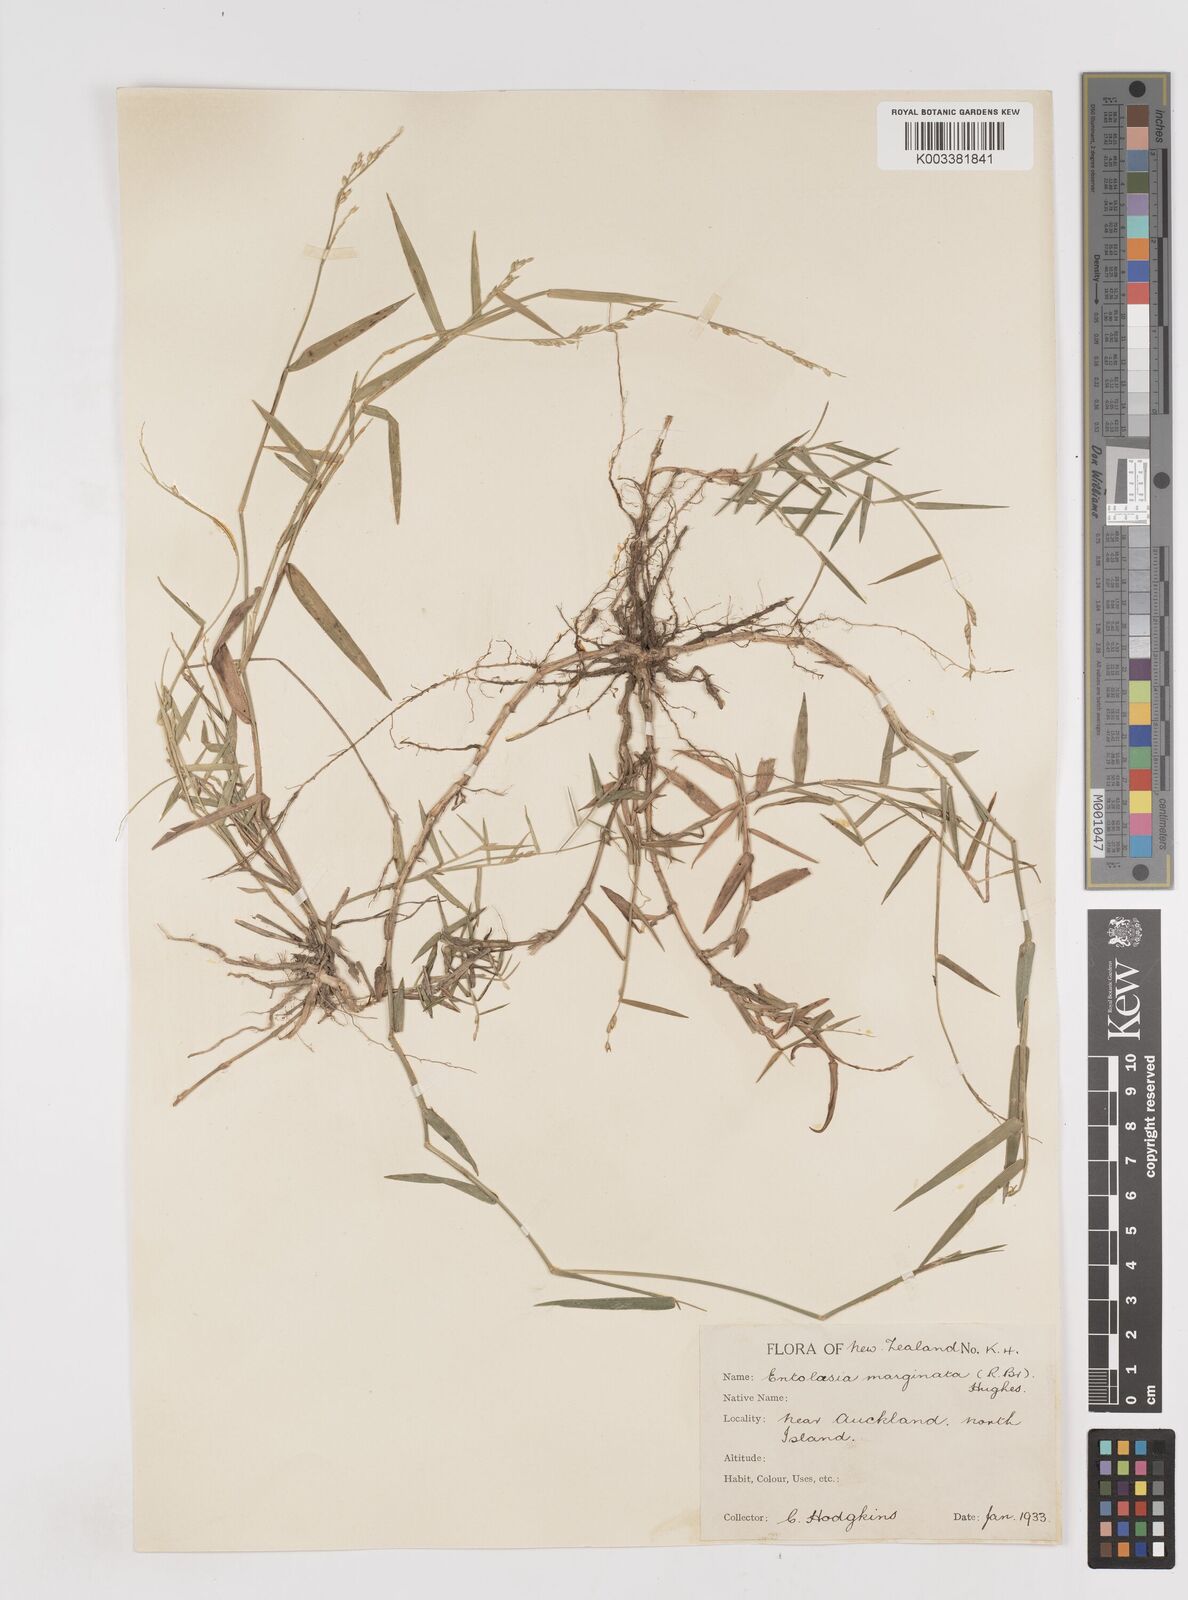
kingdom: Plantae
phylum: Tracheophyta
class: Liliopsida
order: Poales
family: Poaceae
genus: Entolasia
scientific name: Entolasia marginata
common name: Australian panicgrass
